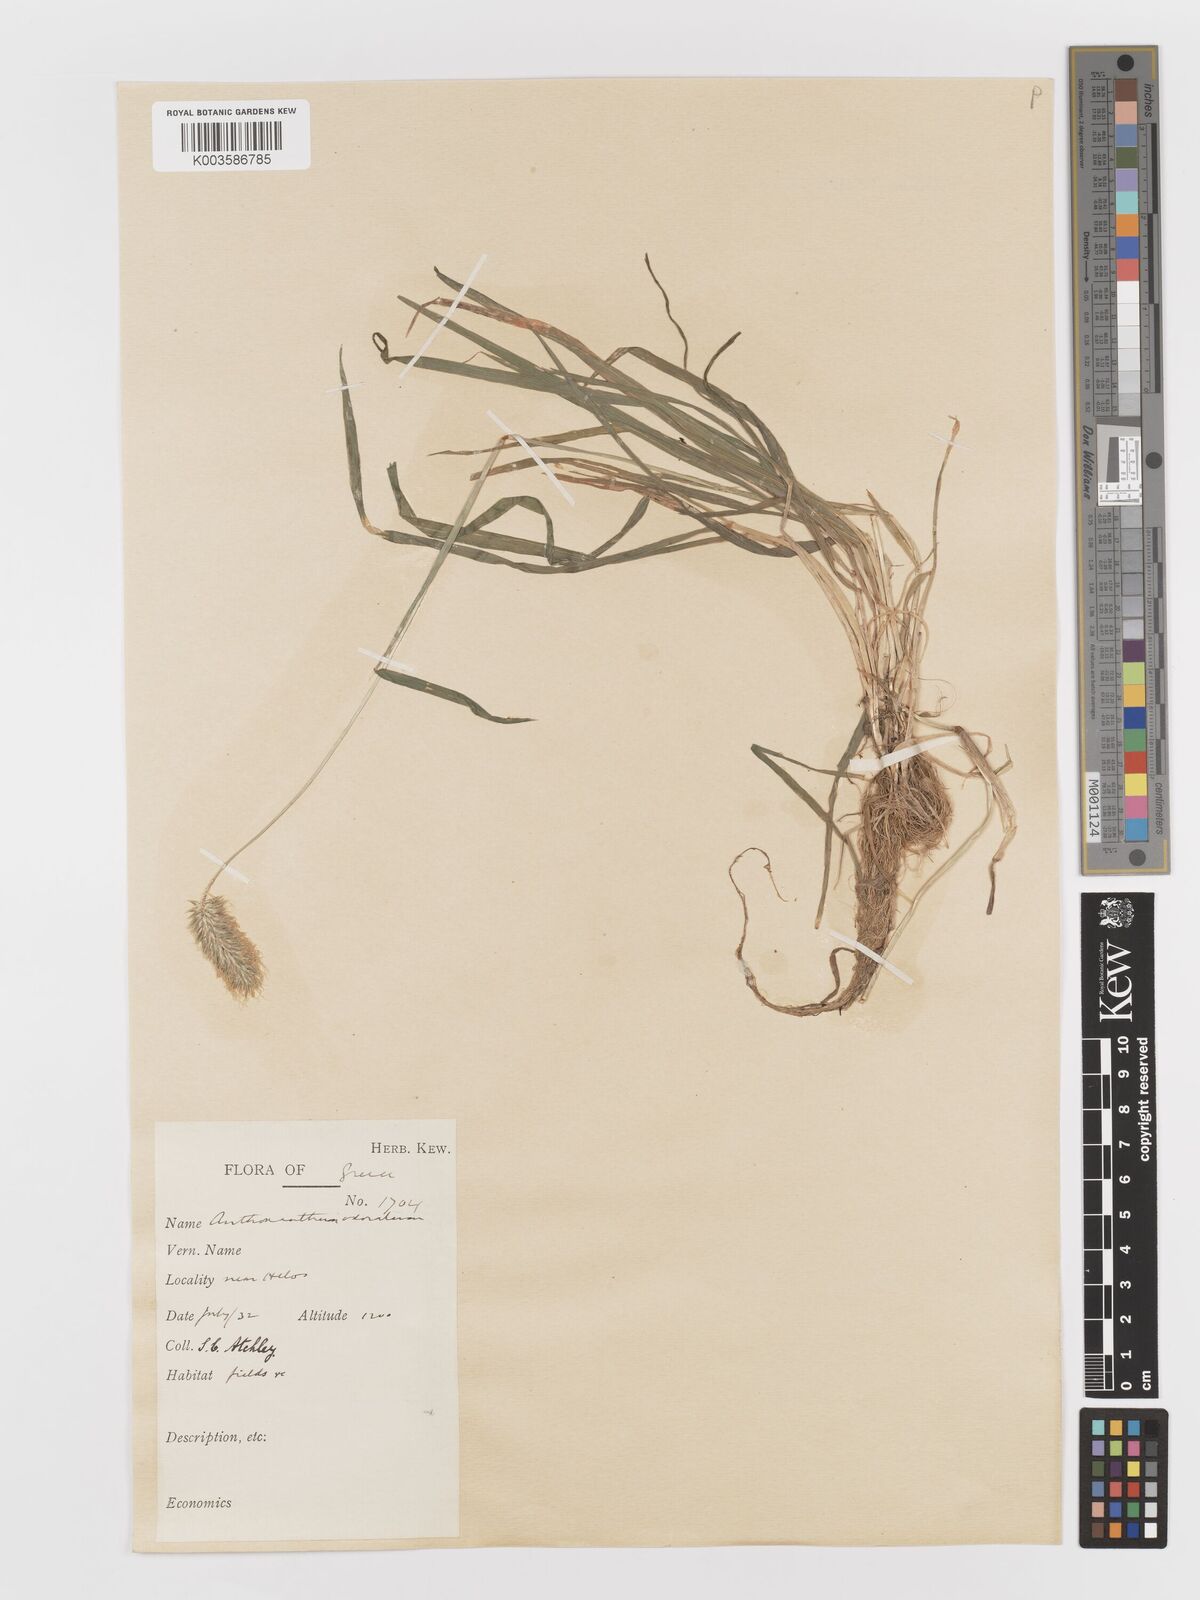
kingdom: Plantae
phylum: Tracheophyta
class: Liliopsida
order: Poales
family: Poaceae
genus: Anthoxanthum
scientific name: Anthoxanthum odoratum
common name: Sweet vernalgrass
